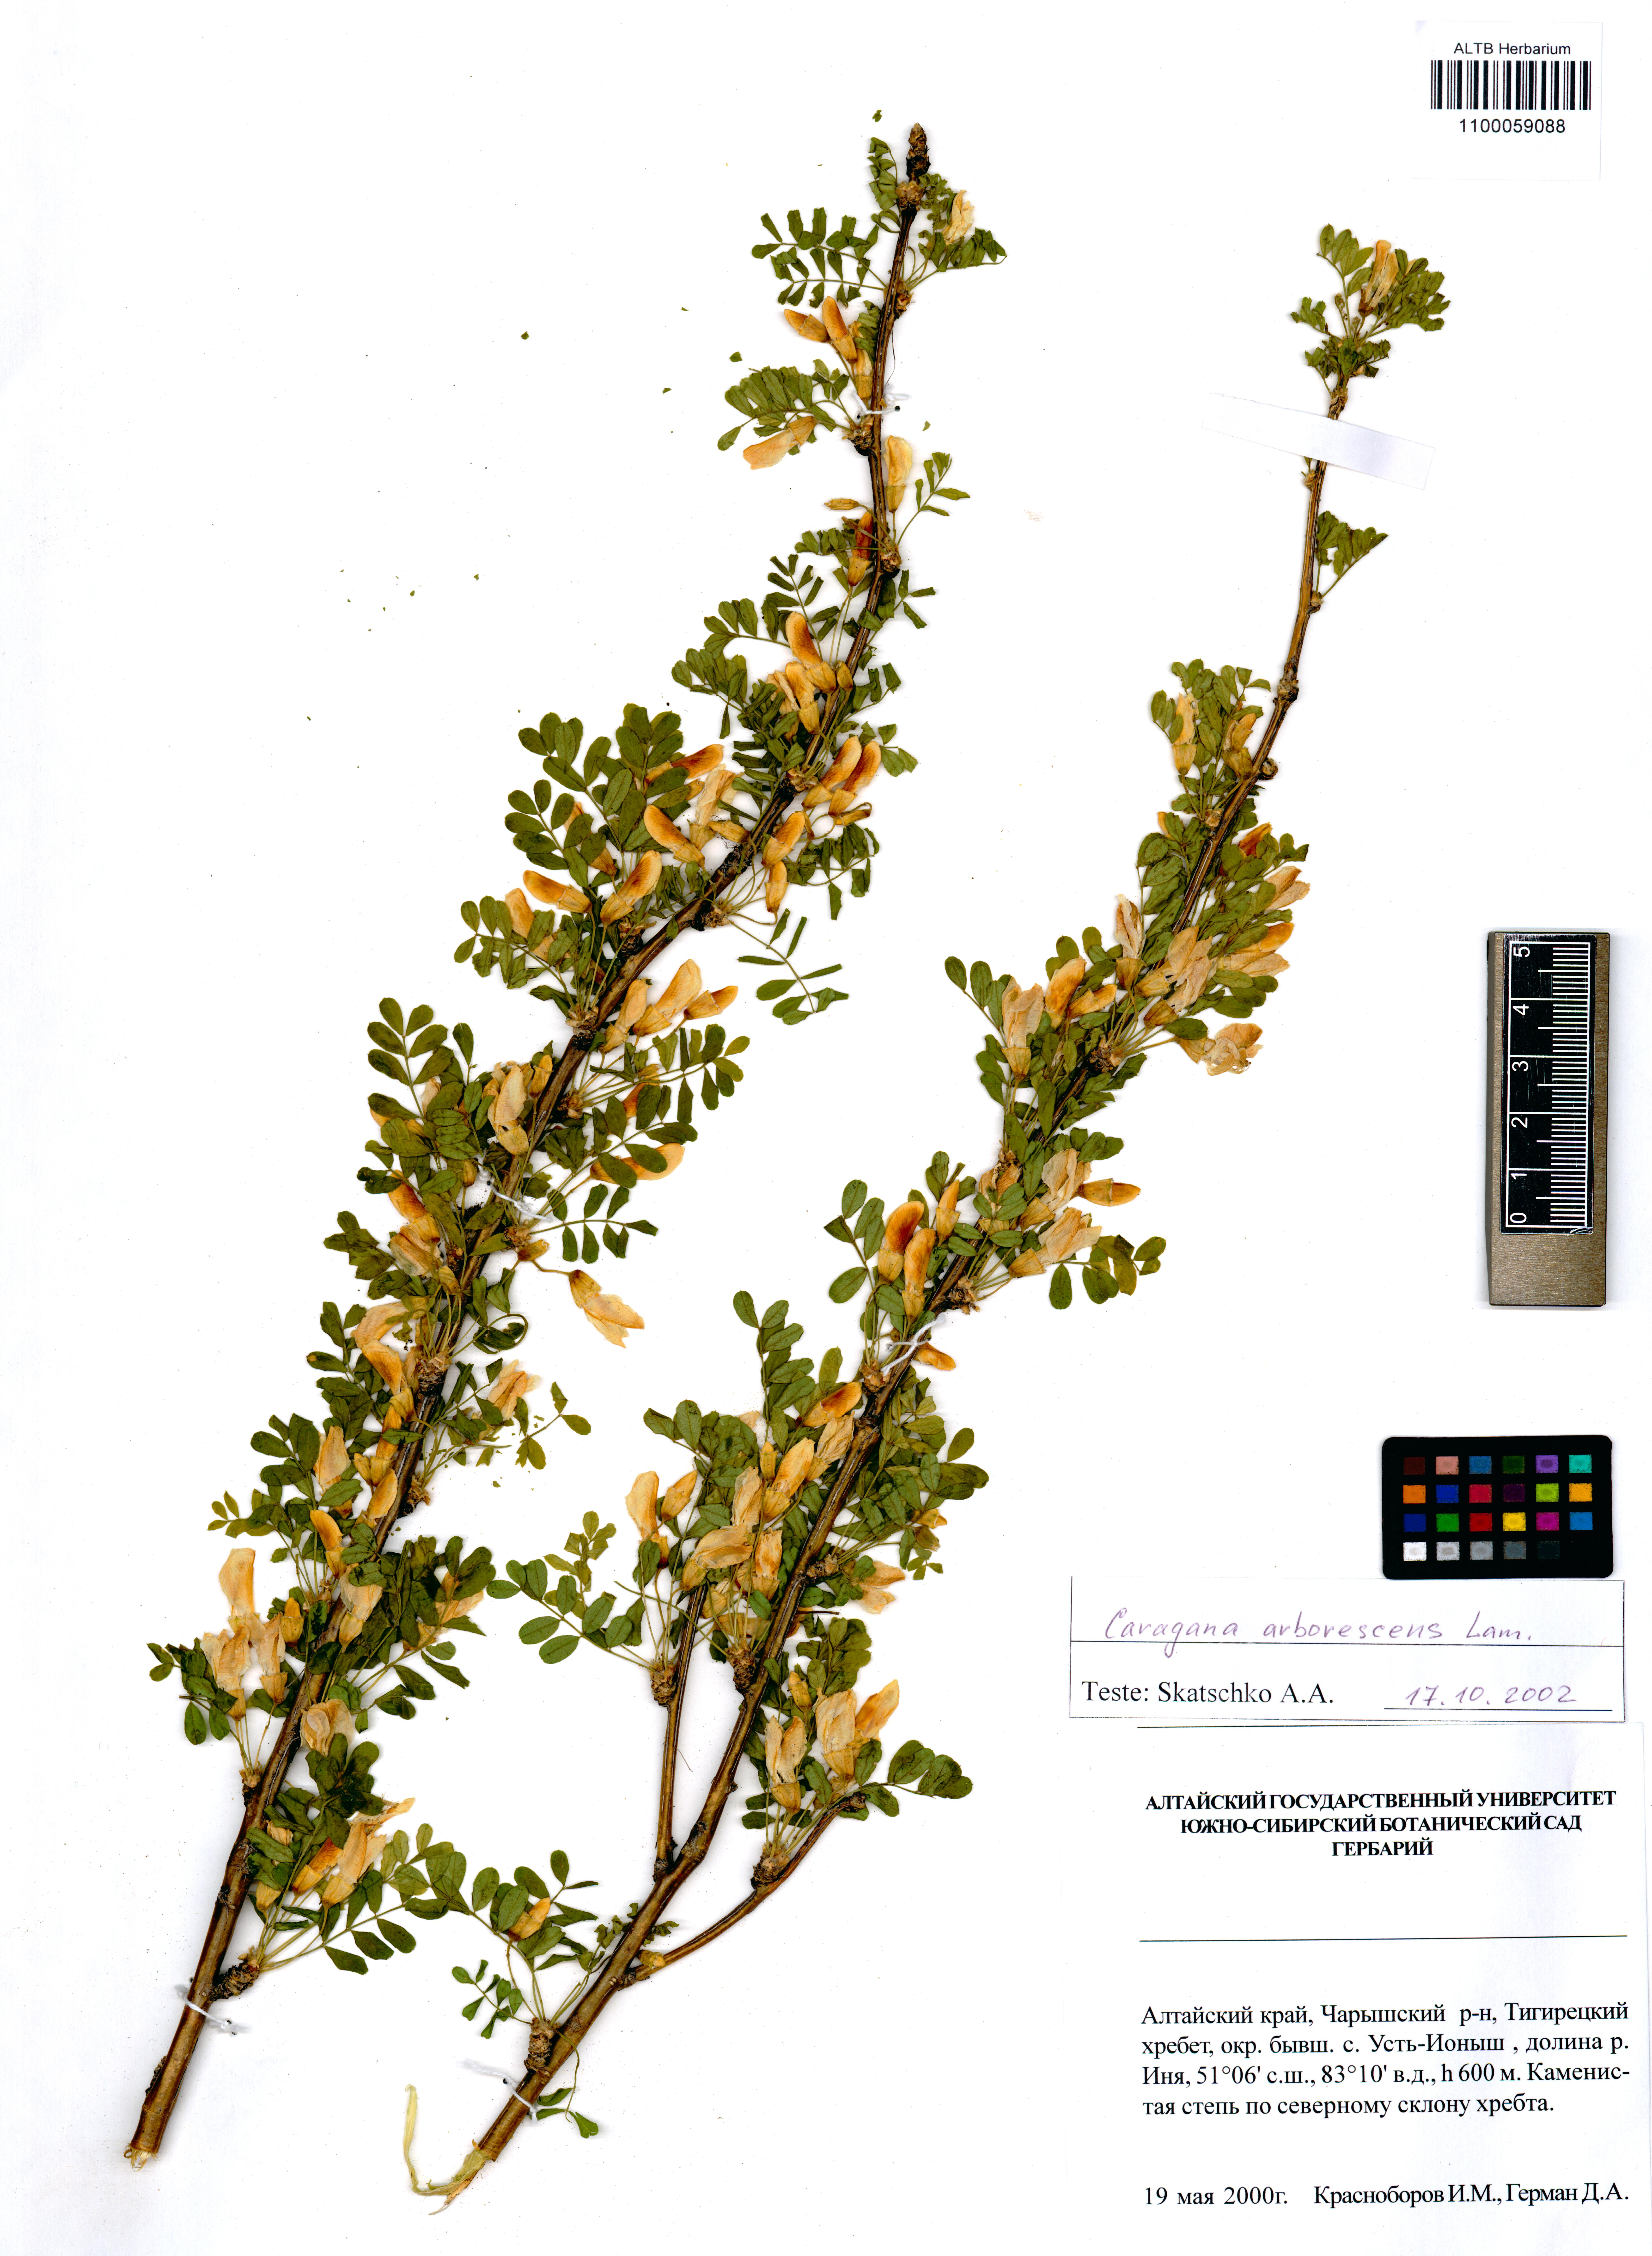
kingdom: Plantae
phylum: Tracheophyta
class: Magnoliopsida
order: Fabales
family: Fabaceae
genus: Caragana
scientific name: Caragana arborescens
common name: Siberian peashrub
